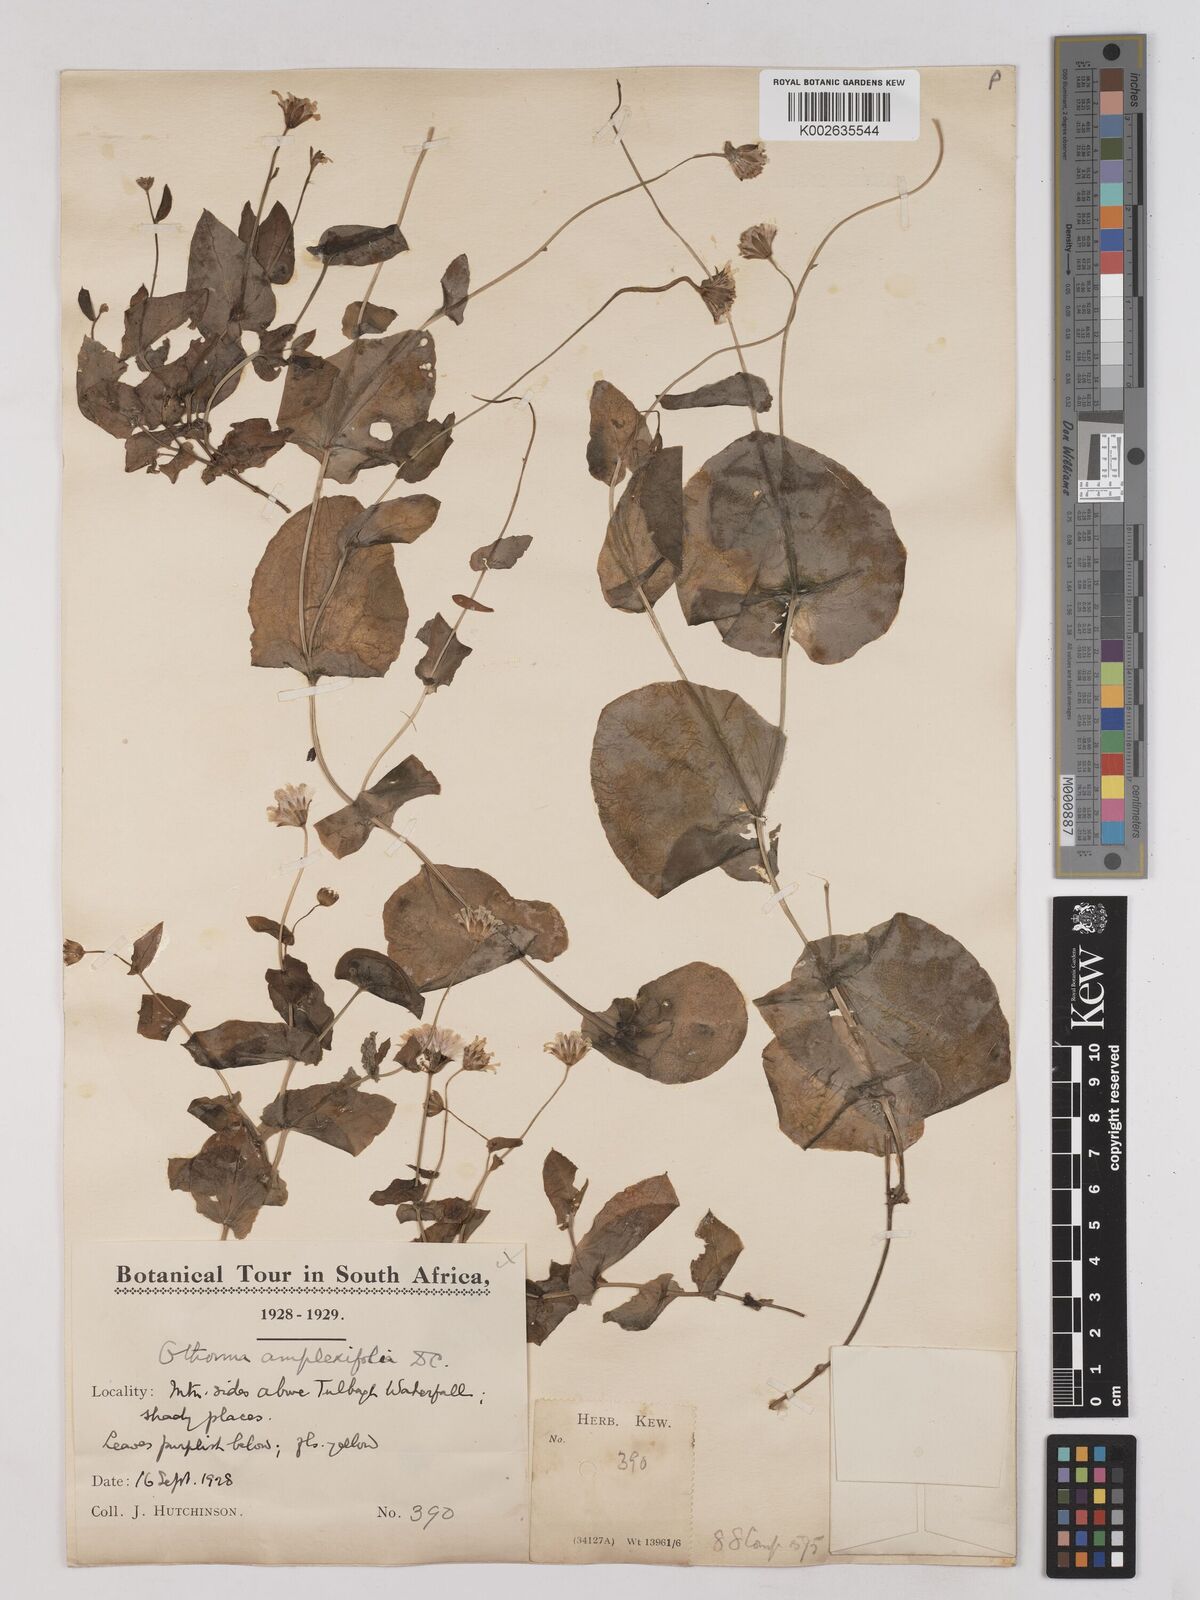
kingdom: Plantae
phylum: Tracheophyta
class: Magnoliopsida
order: Asterales
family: Asteraceae
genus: Othonna
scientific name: Othonna amplexifolia
